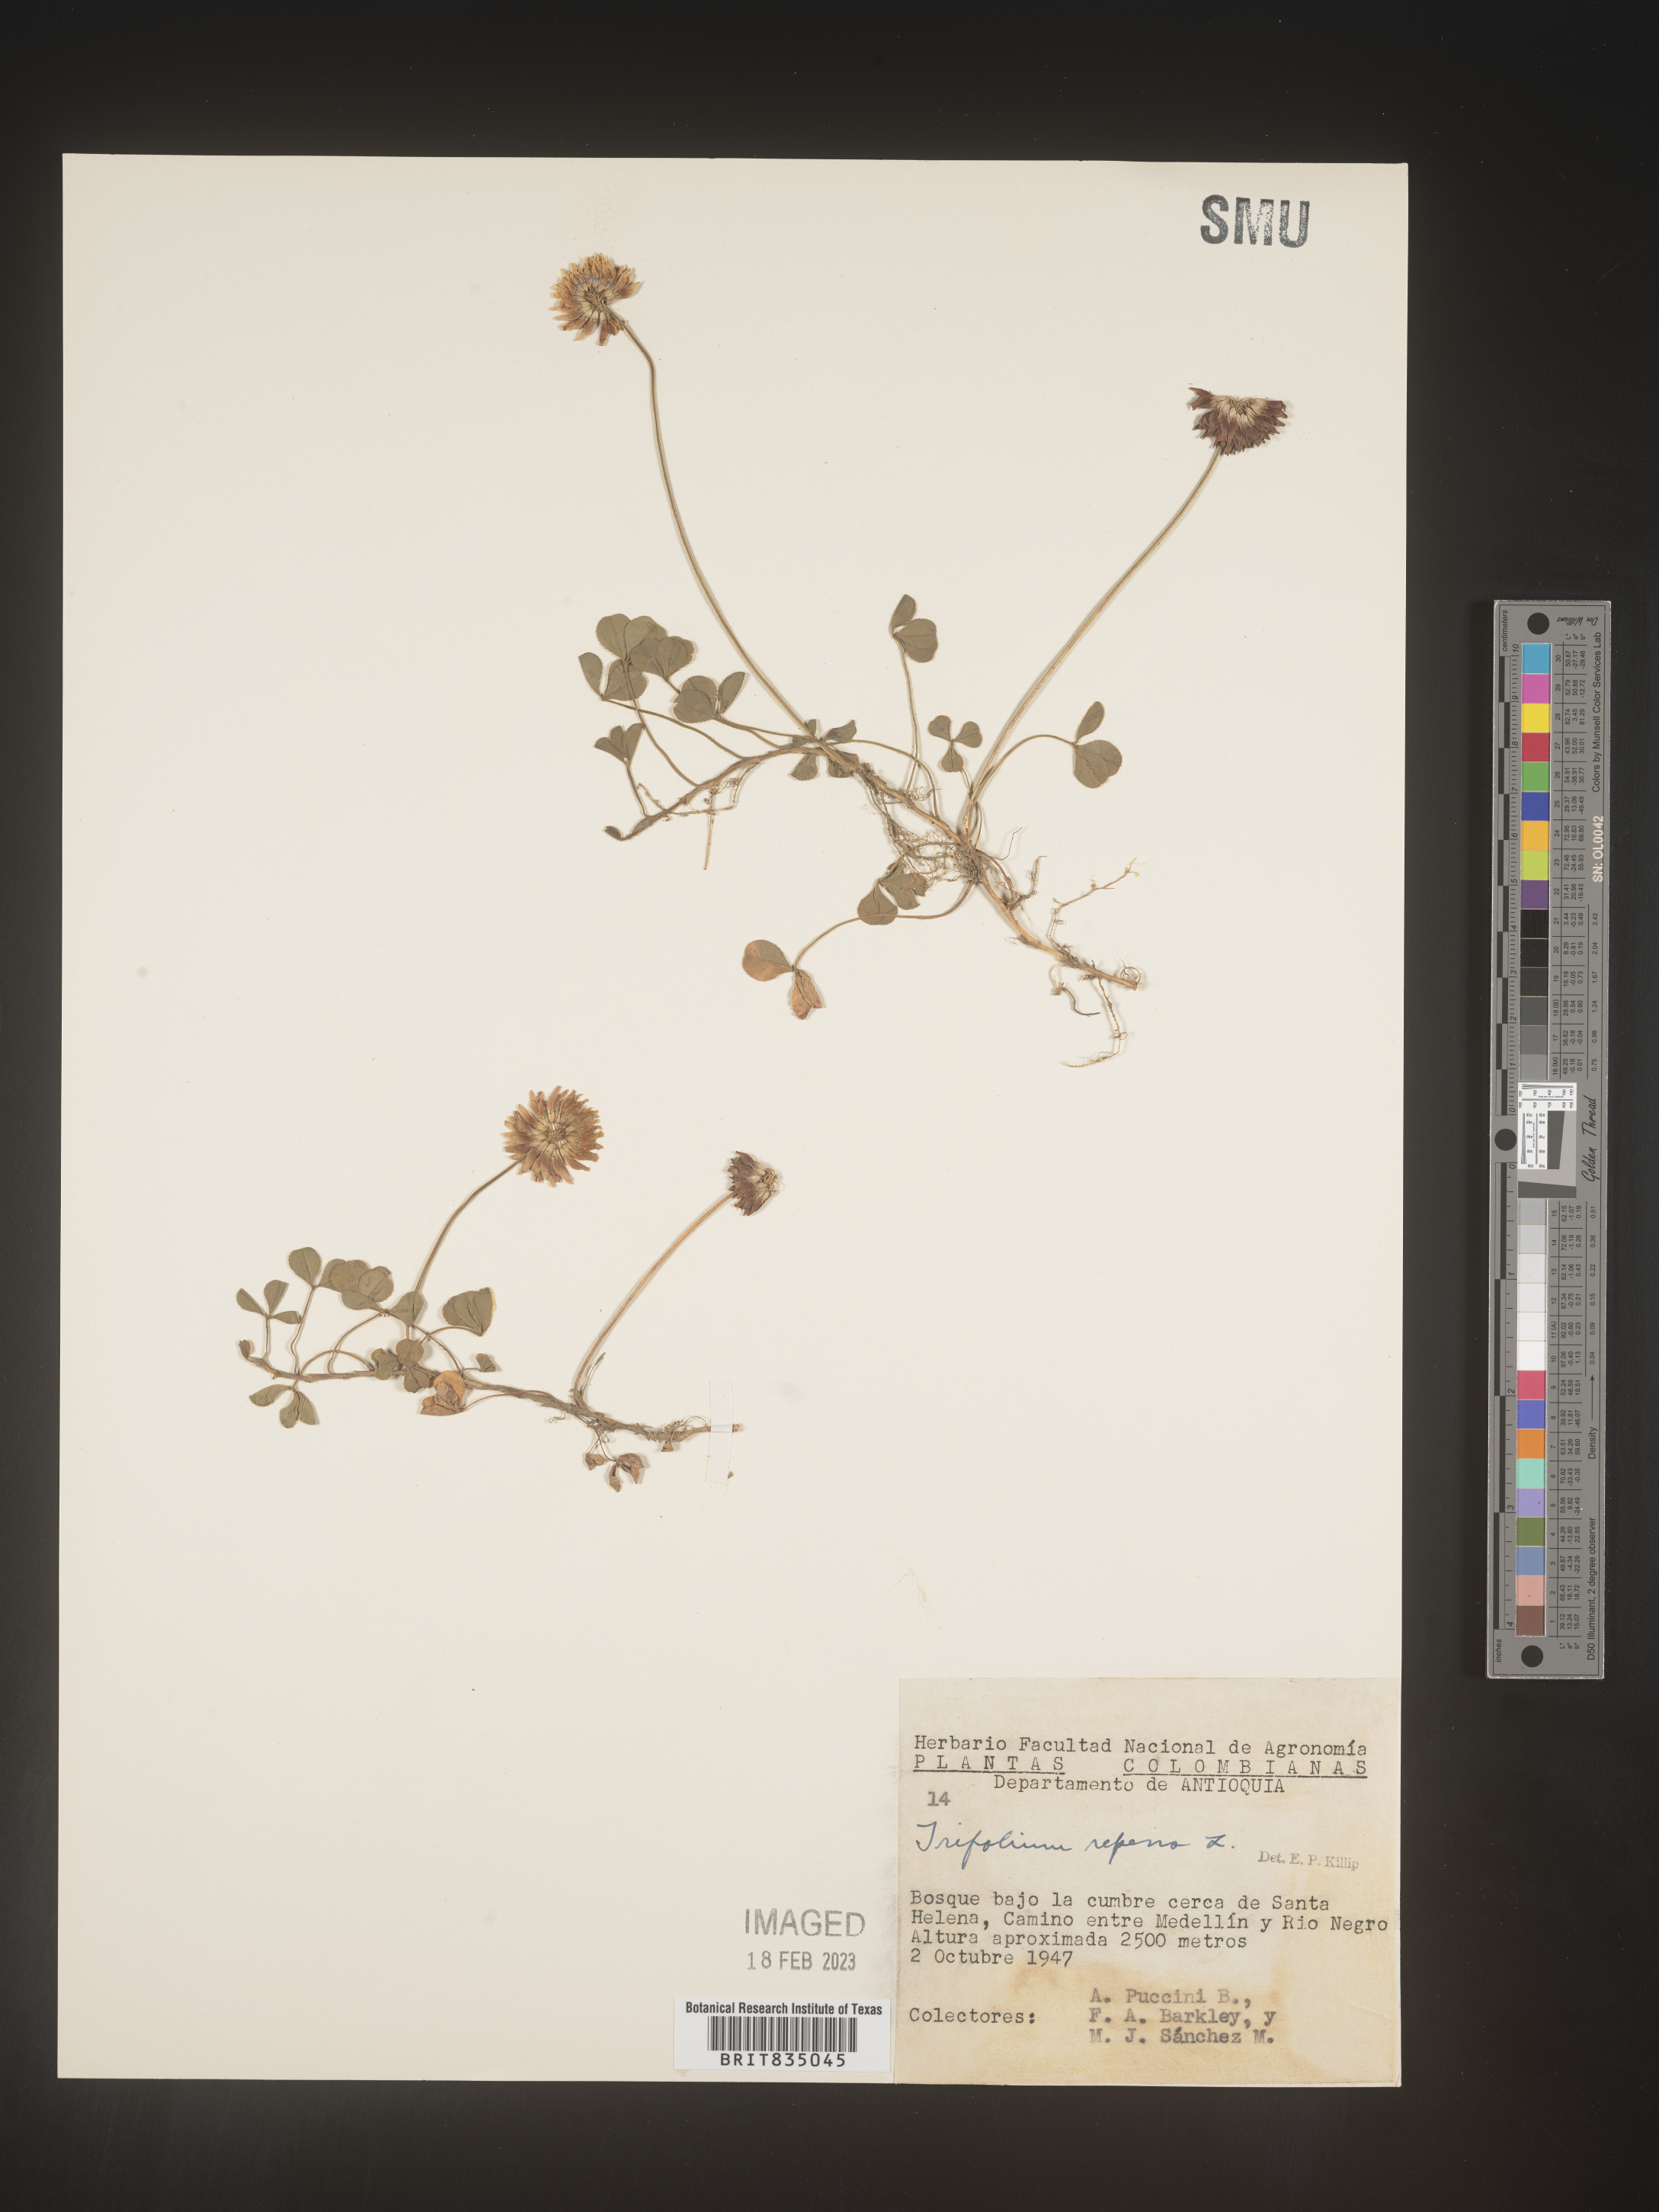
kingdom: Plantae
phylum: Tracheophyta
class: Magnoliopsida
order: Fabales
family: Fabaceae
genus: Trifolium
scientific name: Trifolium
